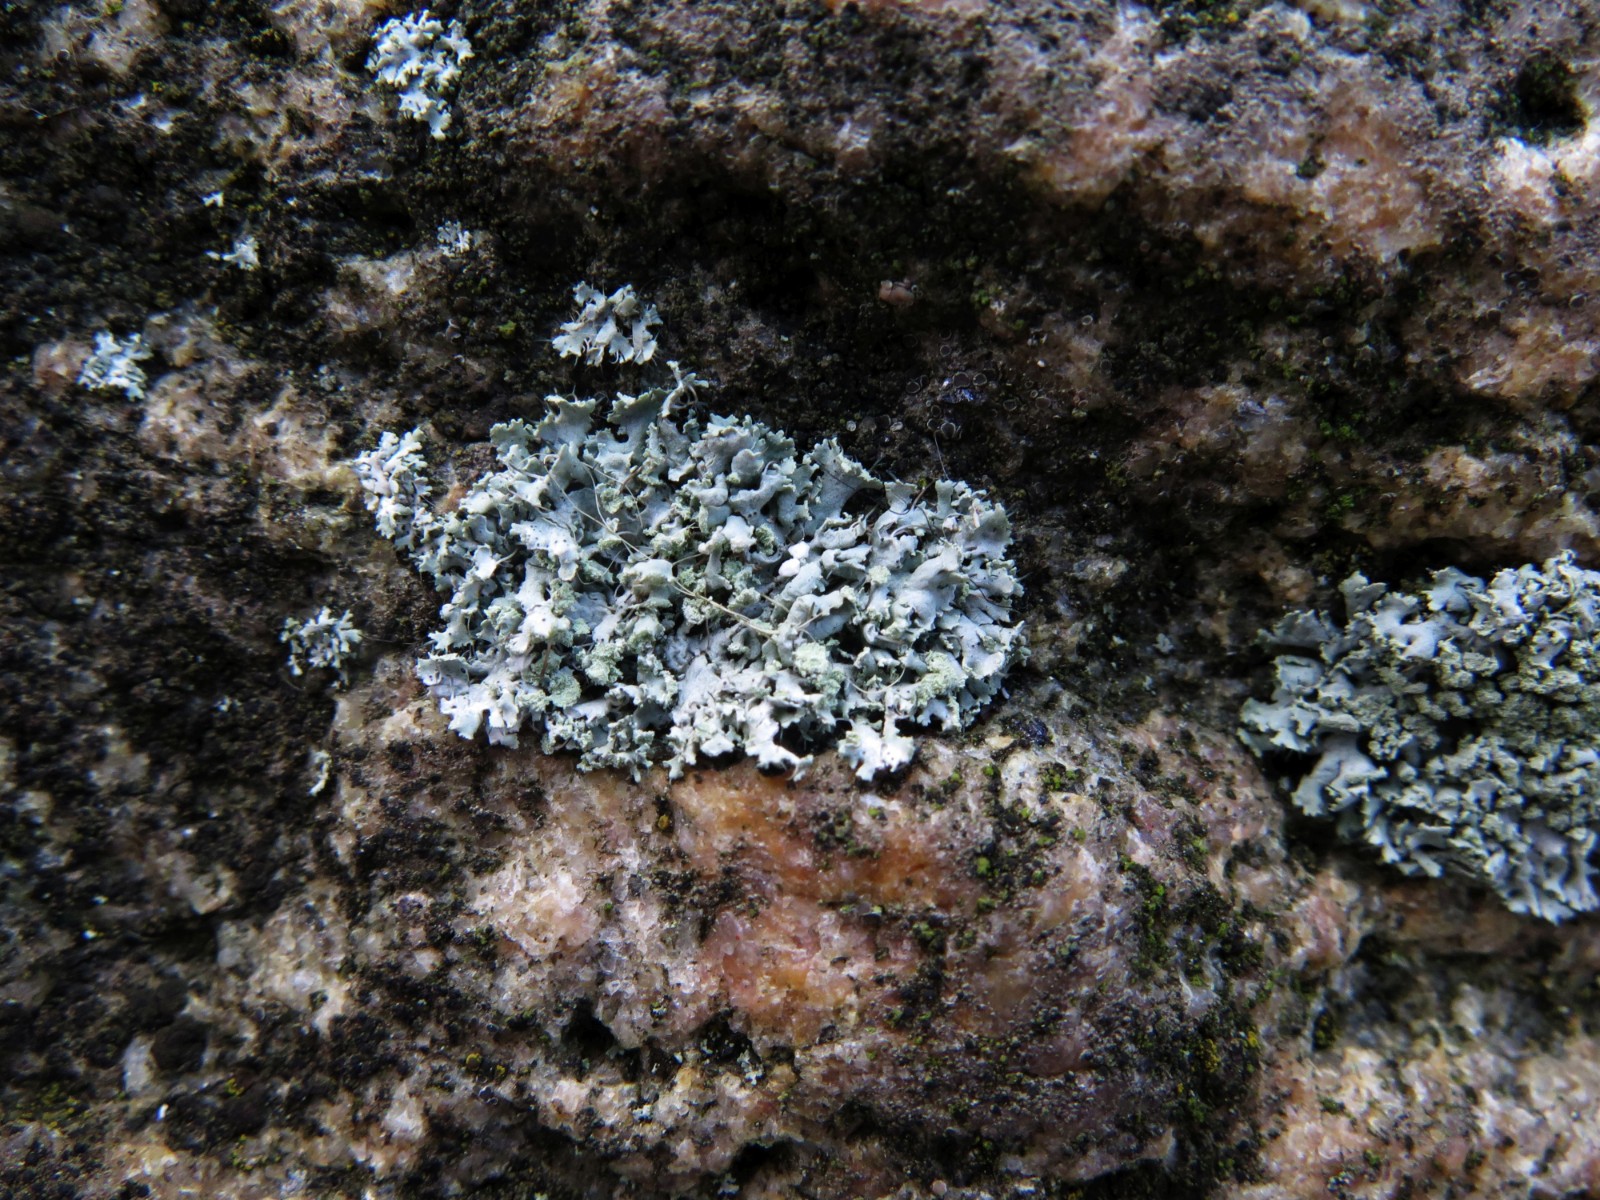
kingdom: Fungi
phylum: Ascomycota
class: Lecanoromycetes
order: Caliciales
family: Physciaceae
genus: Physcia
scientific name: Physcia tenella
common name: spæd rosetlav
